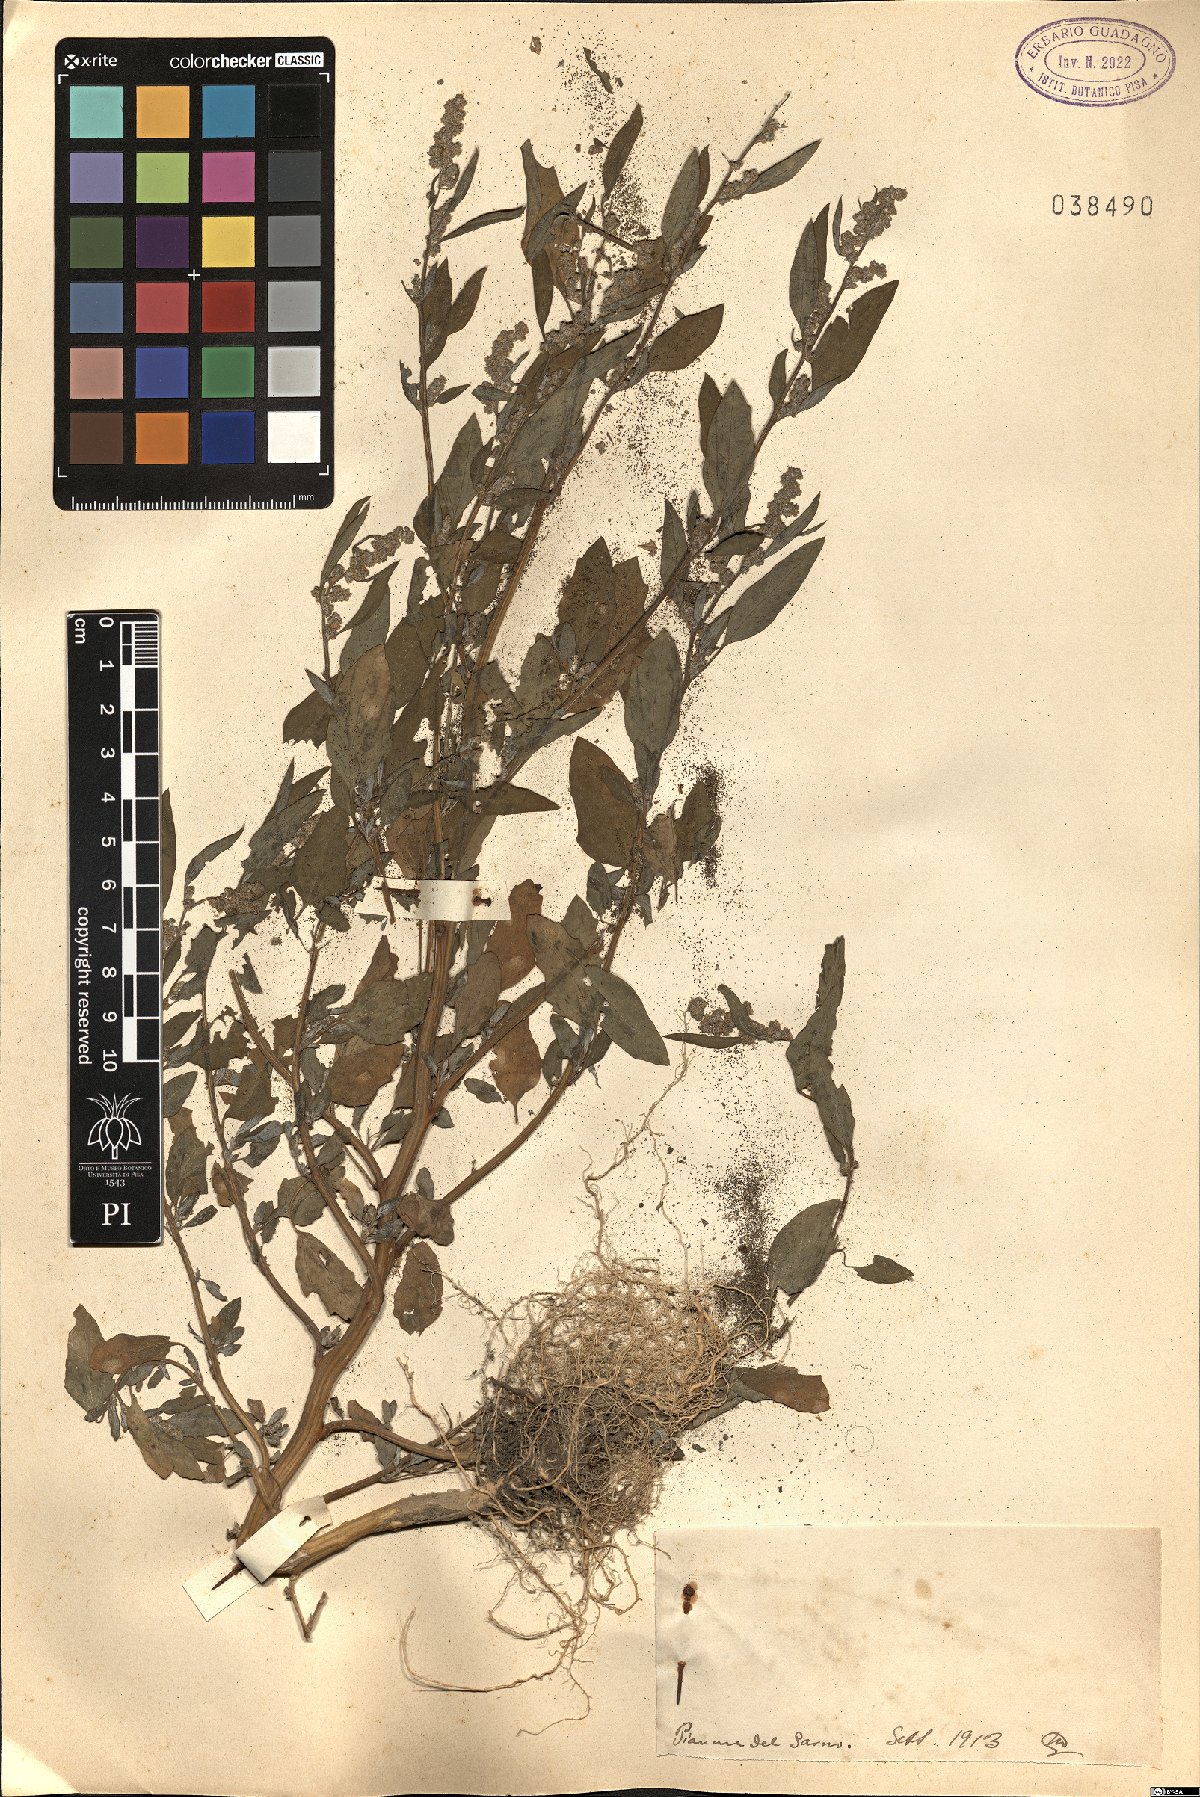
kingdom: Plantae
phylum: Tracheophyta
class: Magnoliopsida
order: Caryophyllales
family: Amaranthaceae
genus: Dysphania
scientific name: Dysphania
